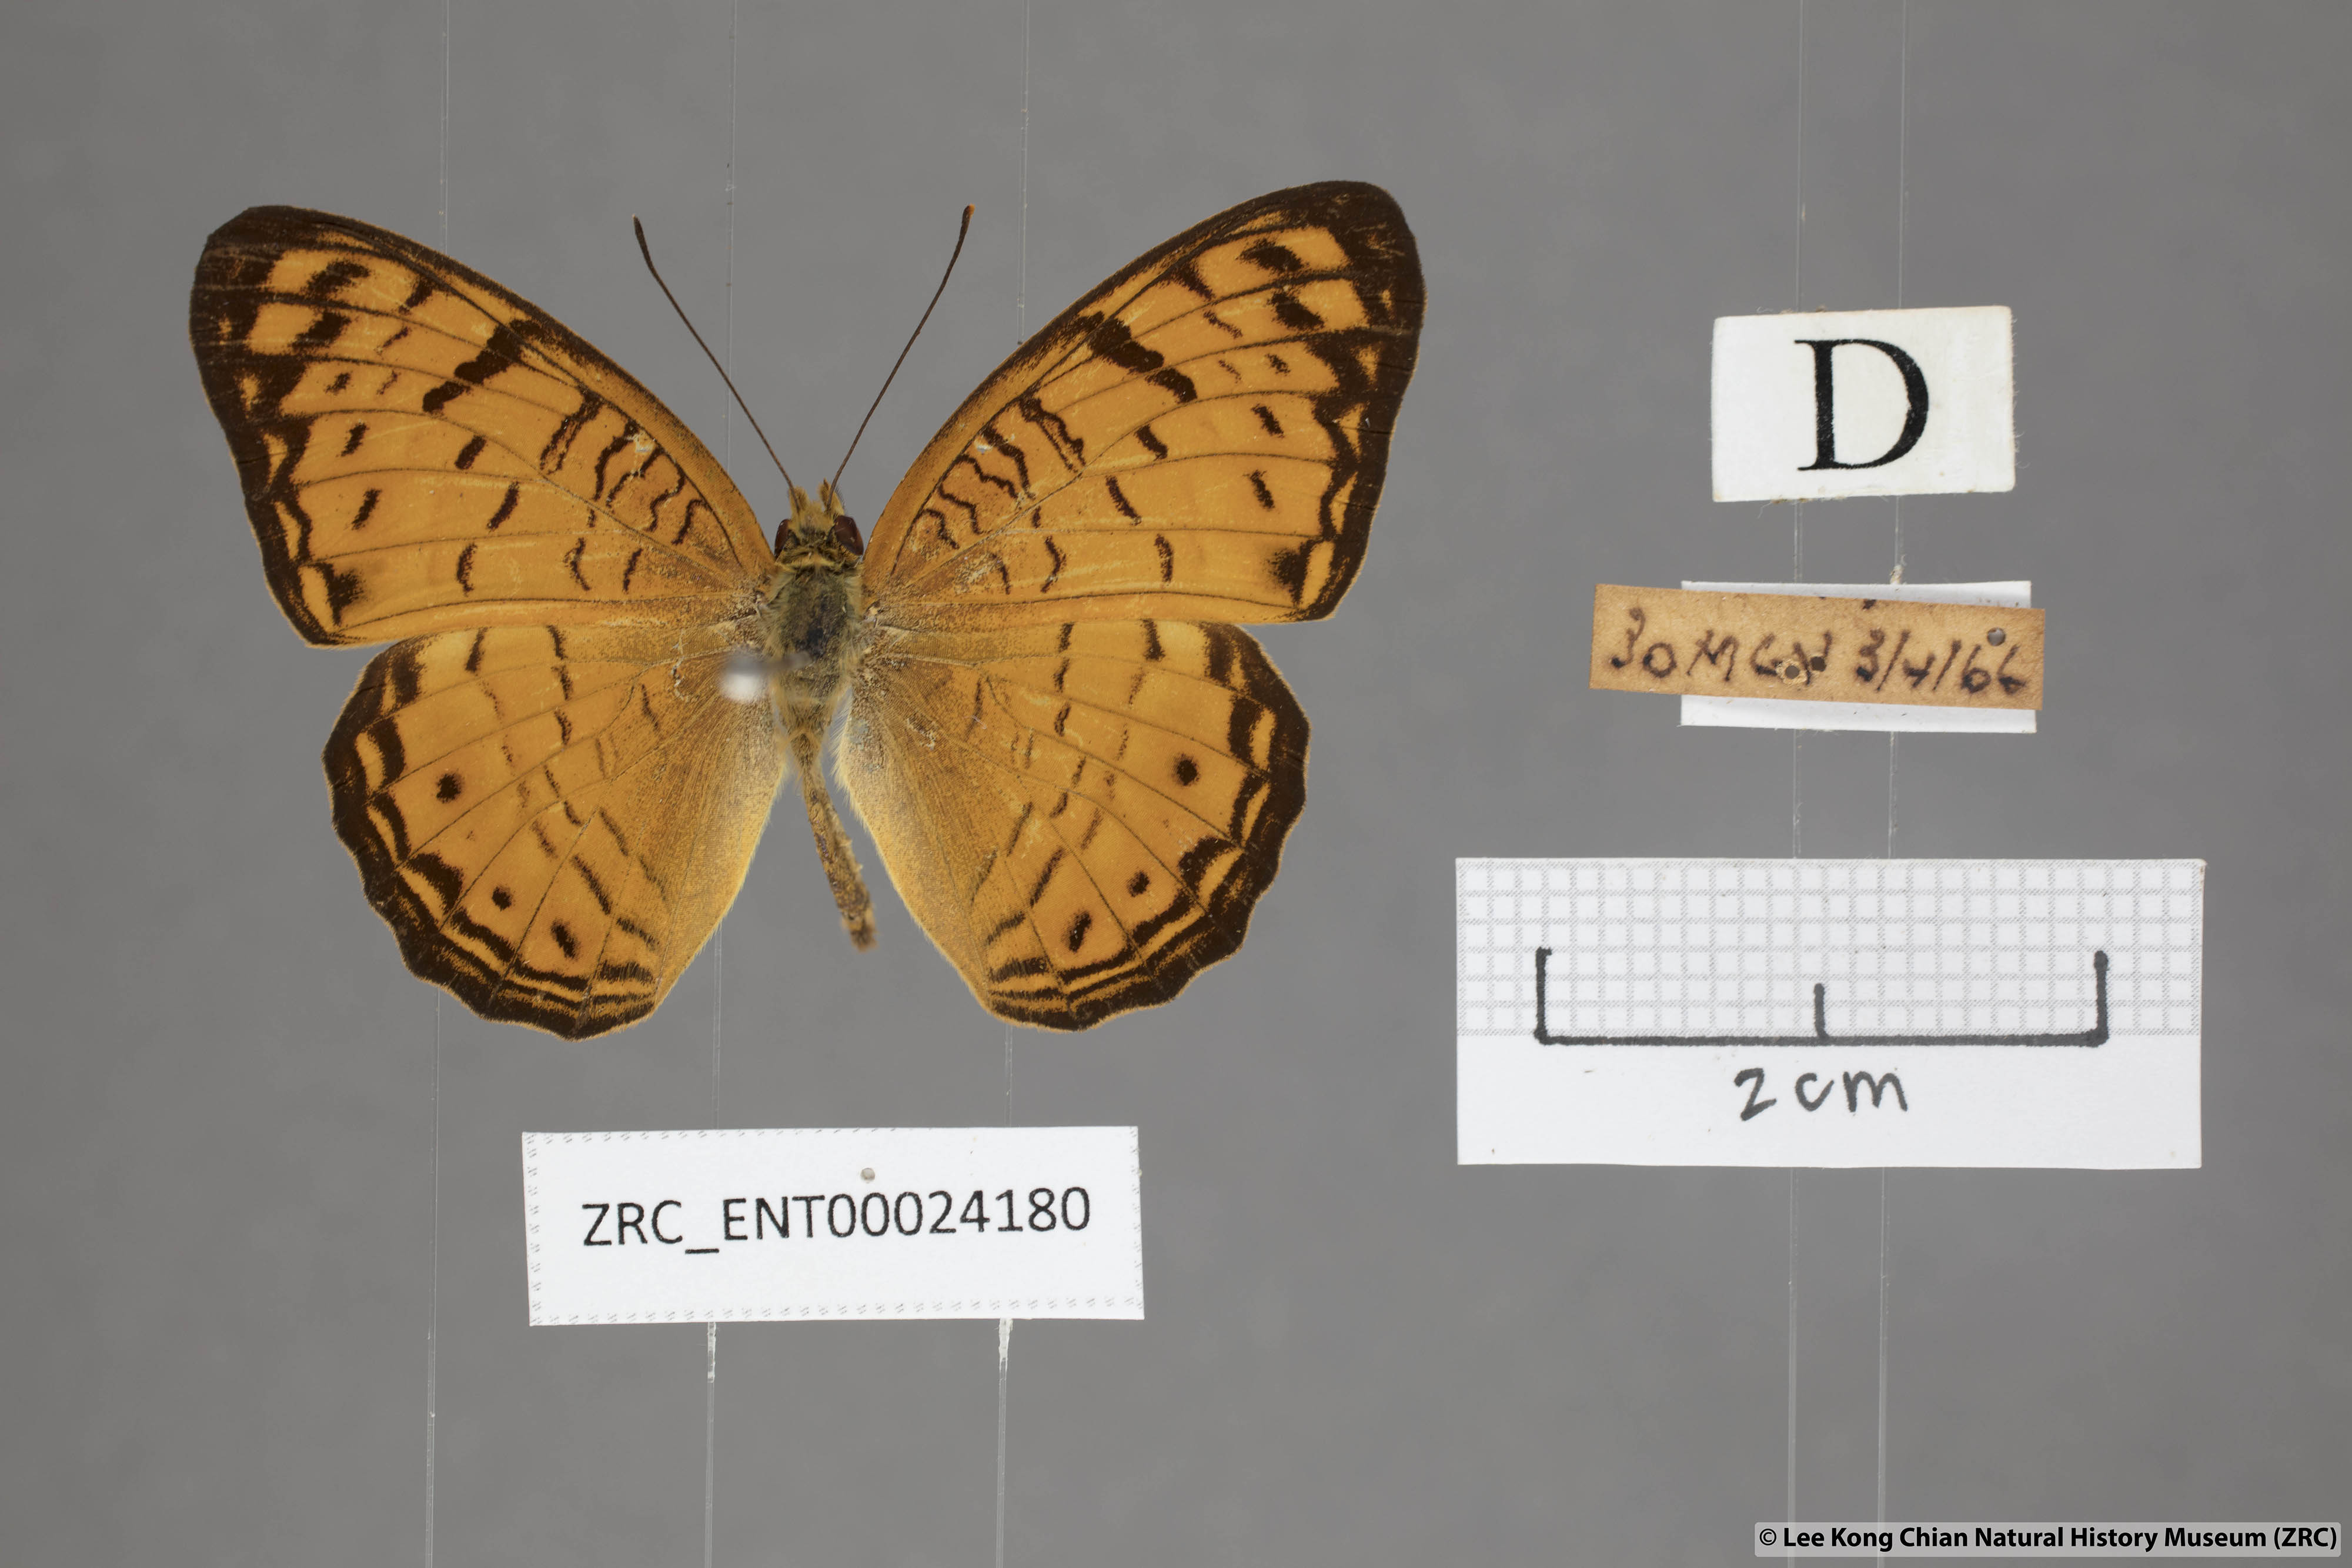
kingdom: Animalia
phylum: Arthropoda
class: Insecta
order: Lepidoptera
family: Nymphalidae
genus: Phalanta
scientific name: Phalanta alcippe
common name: Small leopard
